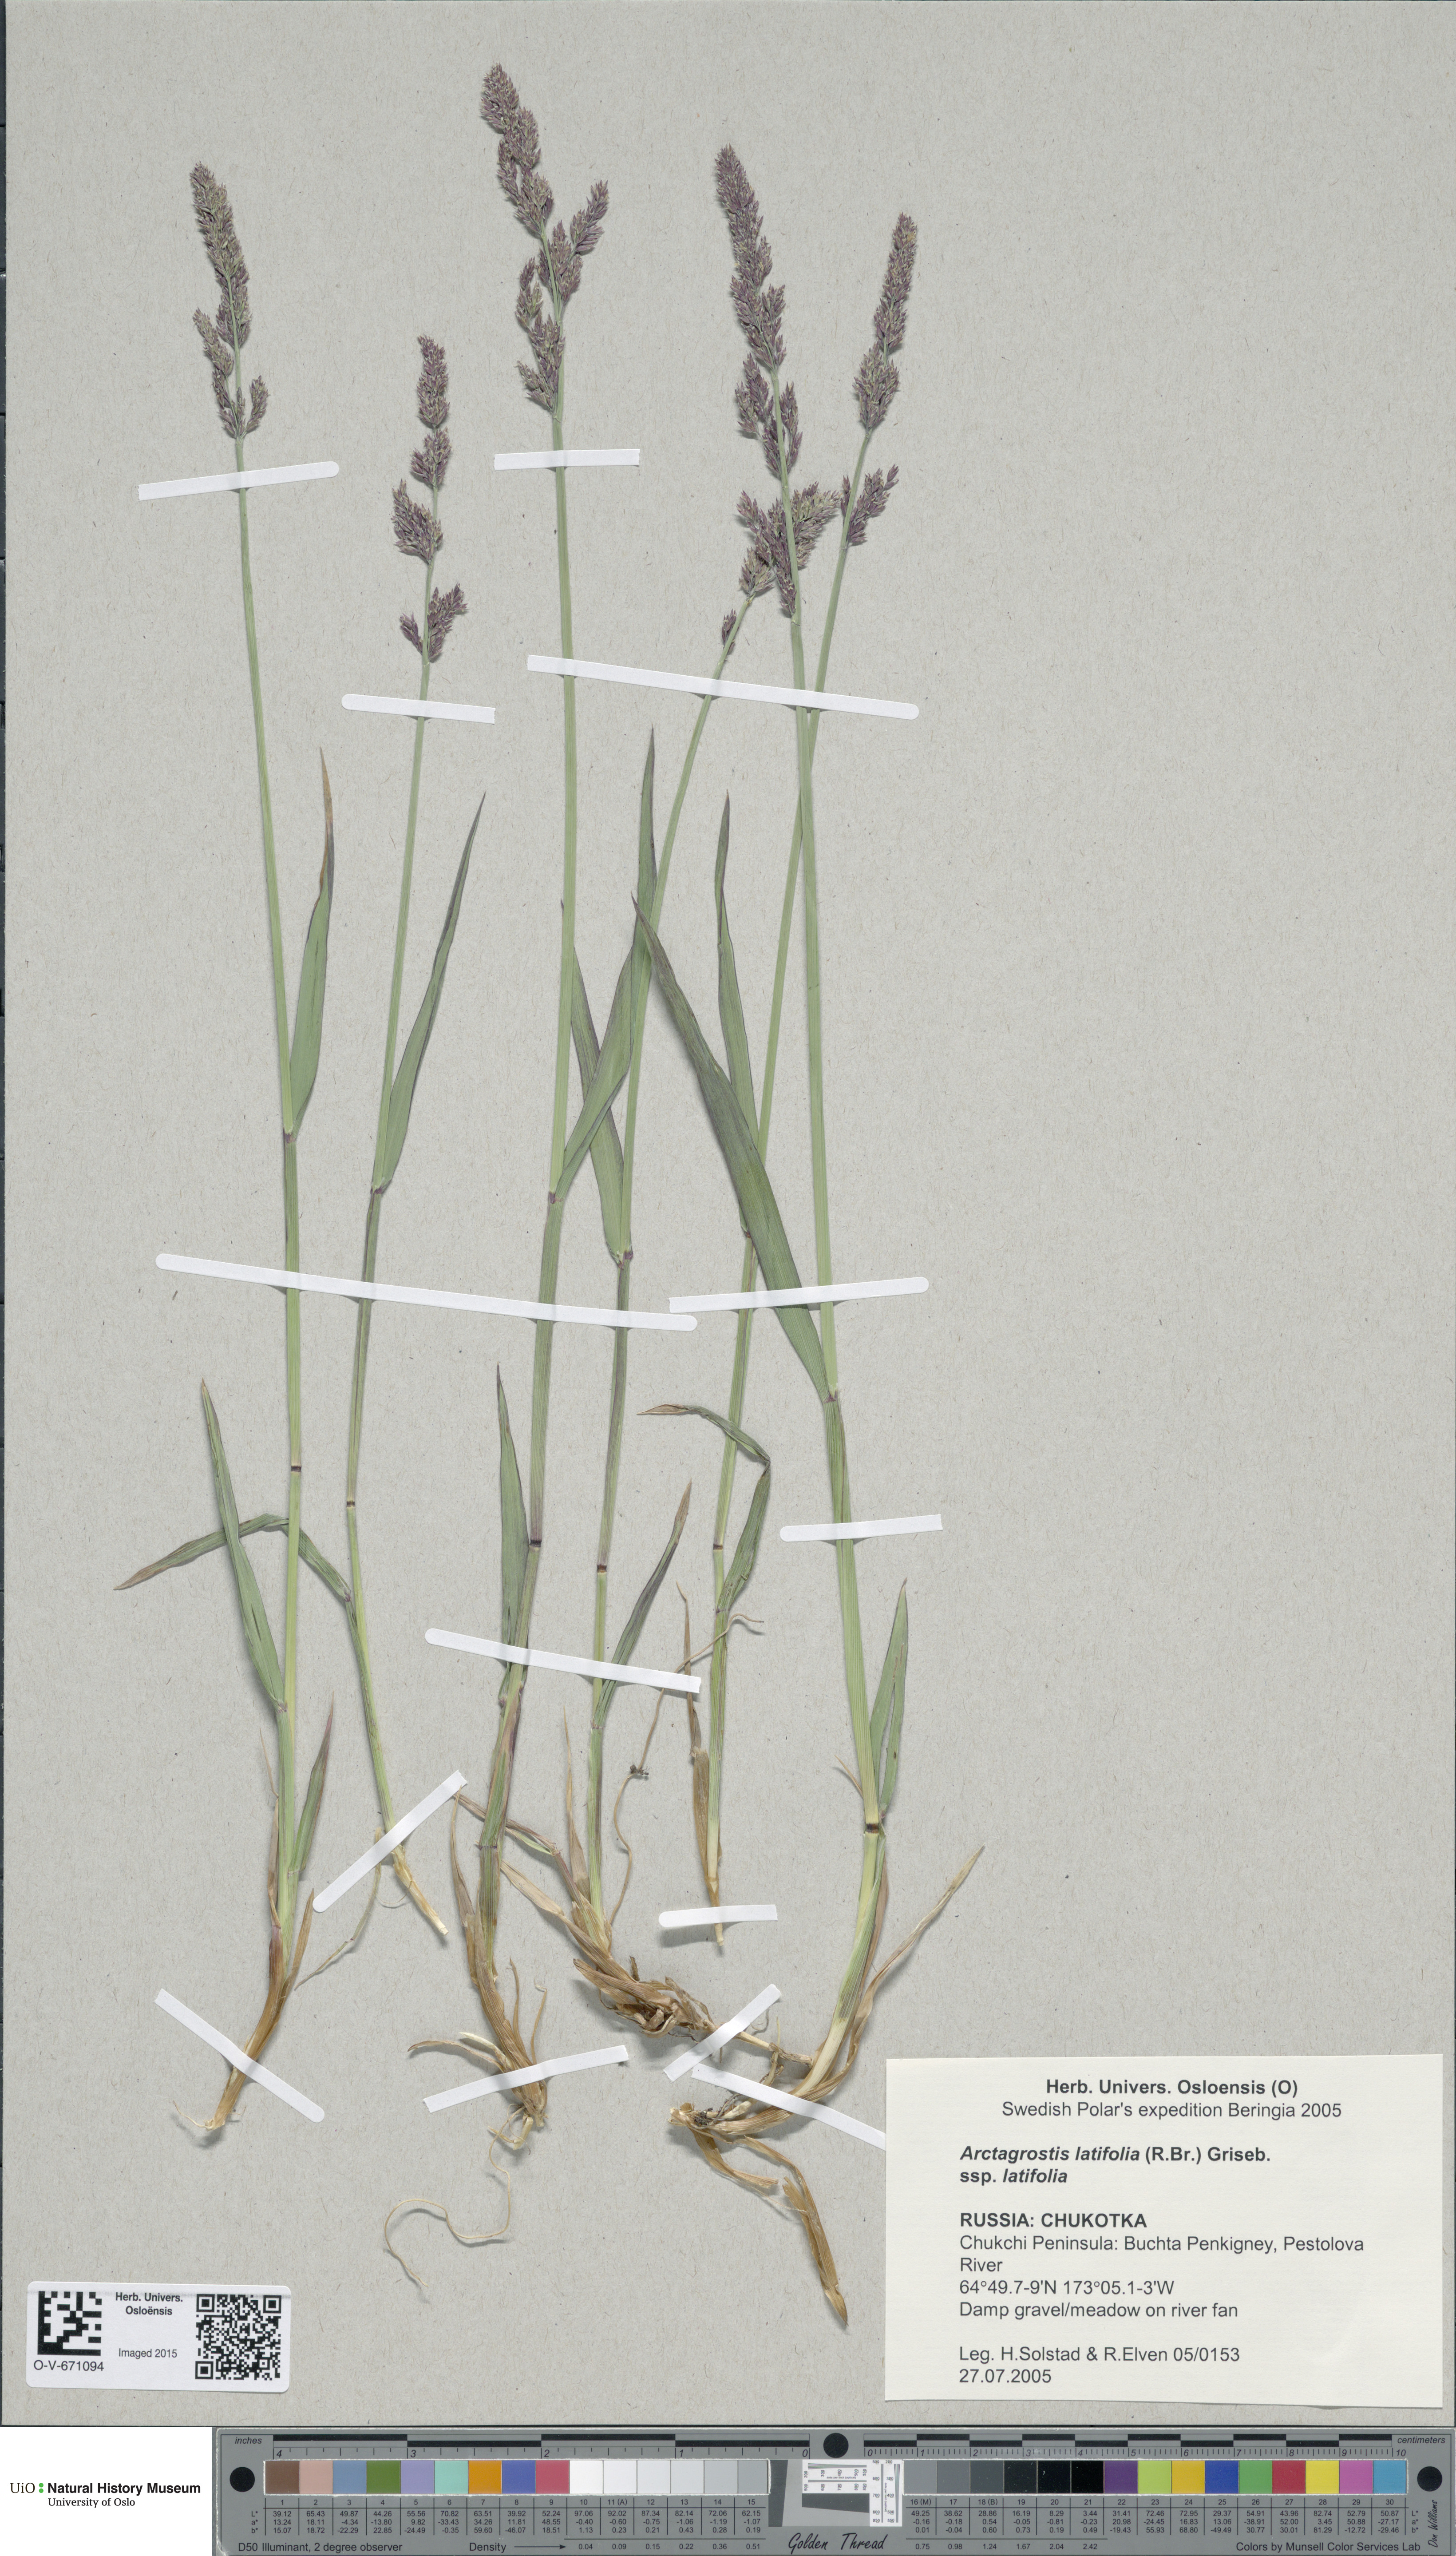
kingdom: Plantae
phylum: Tracheophyta
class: Liliopsida
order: Poales
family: Poaceae
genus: Arctagrostis
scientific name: Arctagrostis latifolia
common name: Arctic grass
